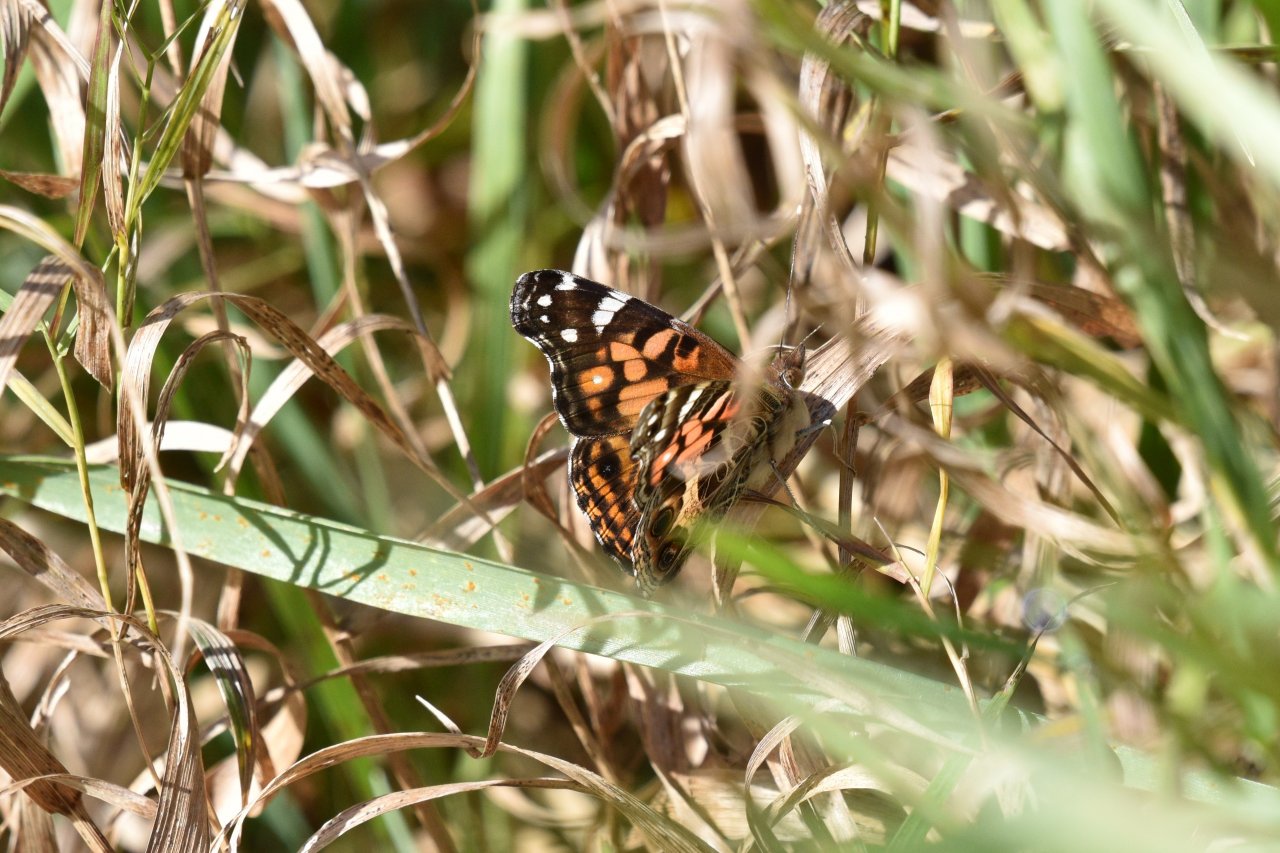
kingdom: Animalia
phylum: Arthropoda
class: Insecta
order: Lepidoptera
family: Nymphalidae
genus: Vanessa
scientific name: Vanessa virginiensis
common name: American Lady
